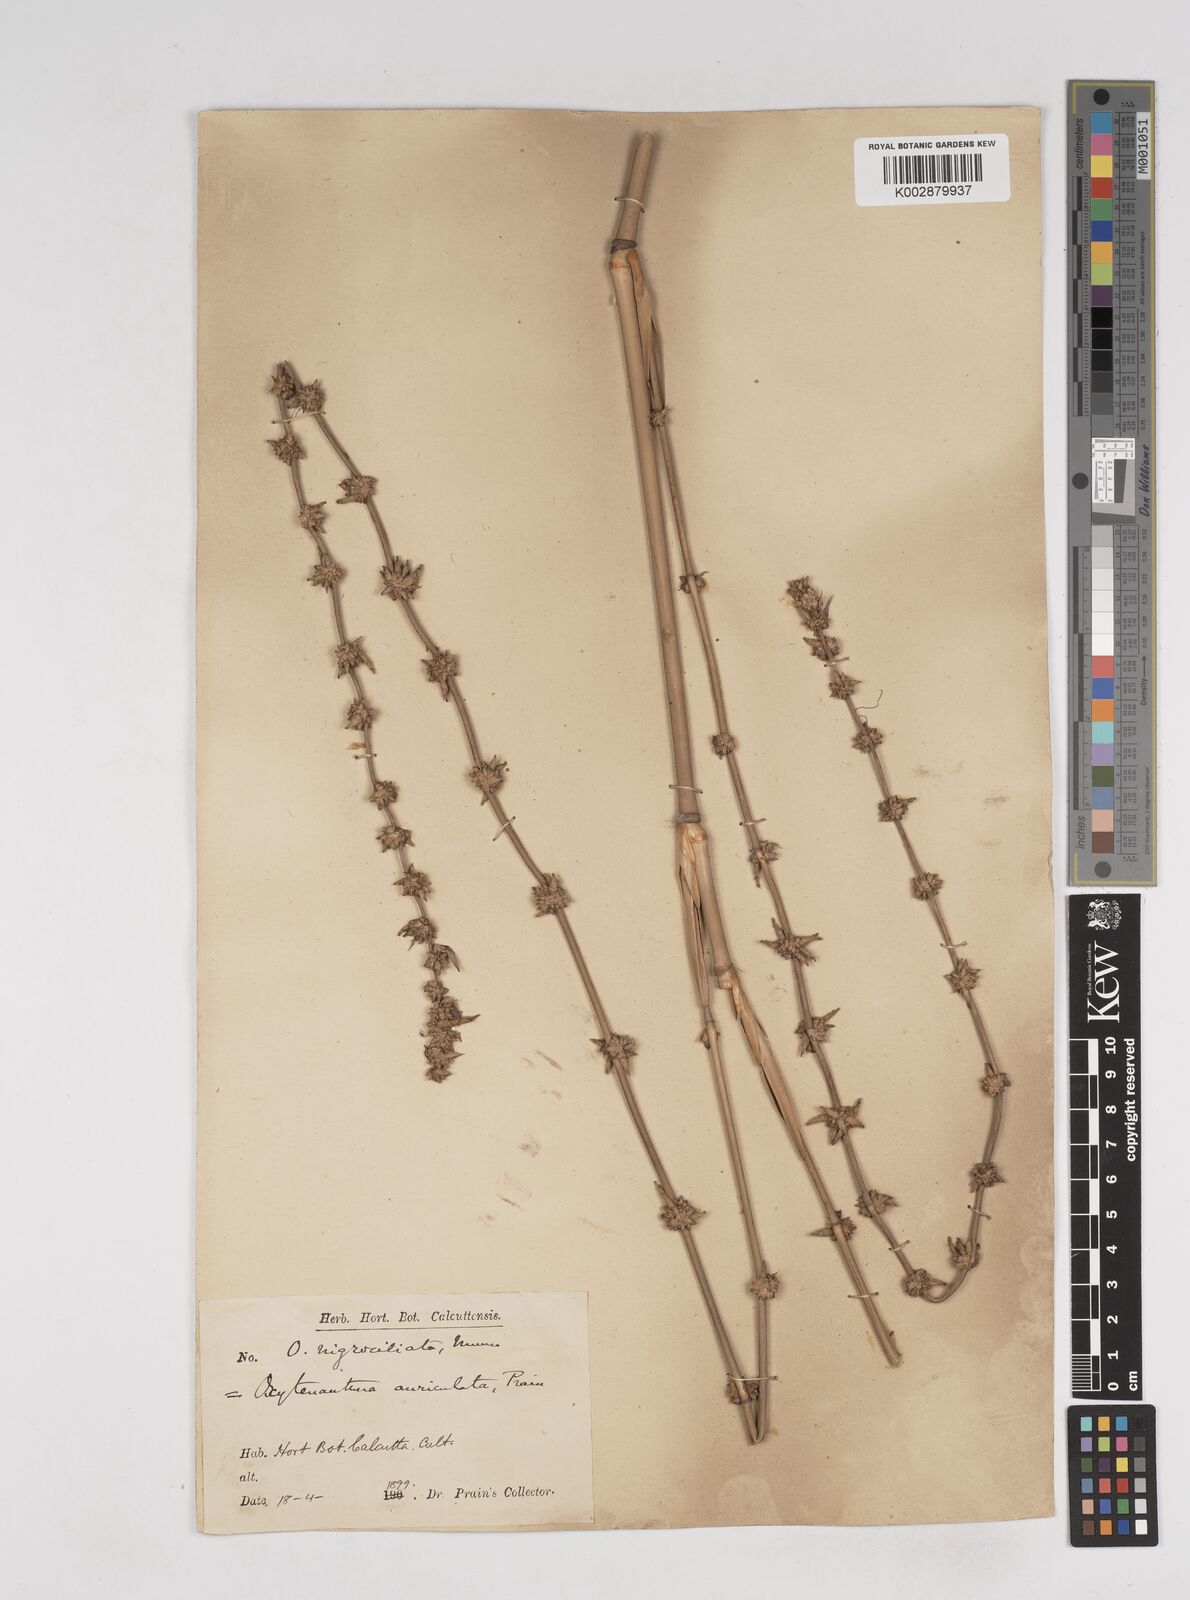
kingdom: Plantae
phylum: Tracheophyta
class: Liliopsida
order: Poales
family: Poaceae
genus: Gigantochloa
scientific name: Gigantochloa nigrociliata
